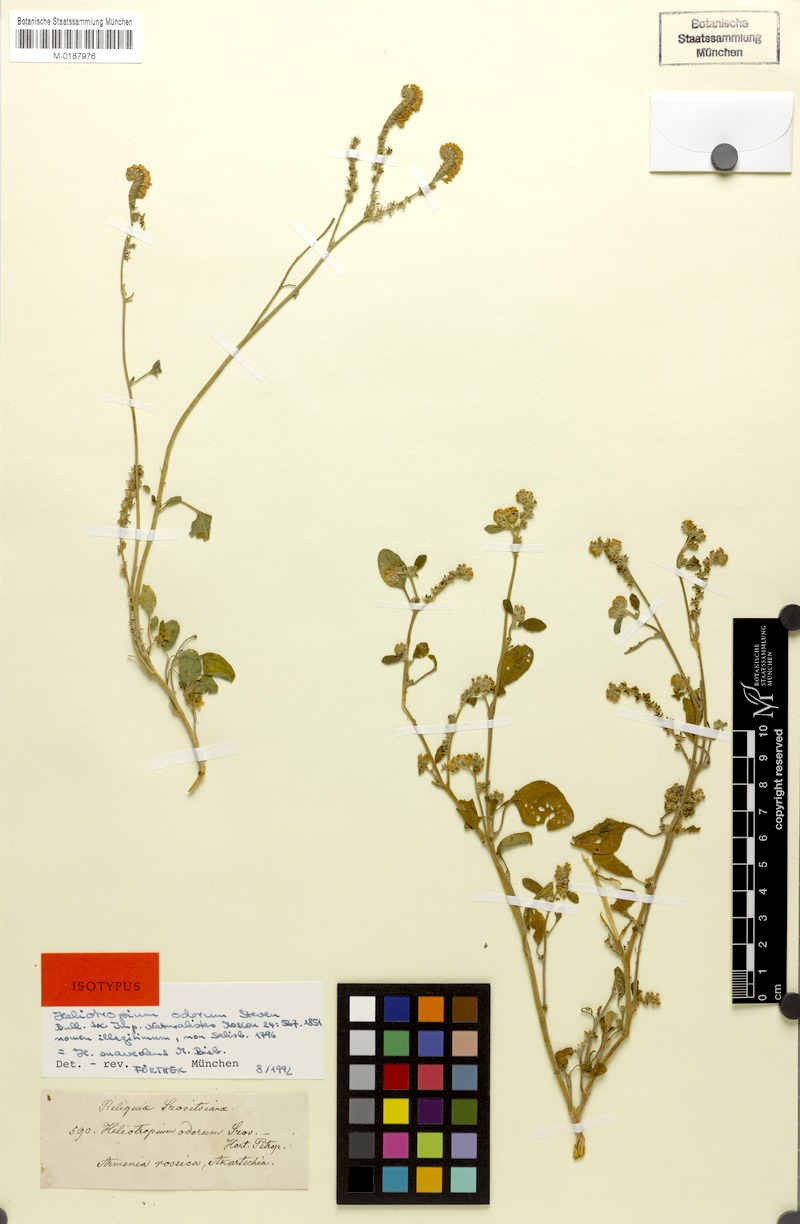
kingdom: Plantae
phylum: Tracheophyta
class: Magnoliopsida
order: Boraginales
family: Heliotropiaceae
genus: Heliotropium
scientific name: Heliotropium suaveolens
